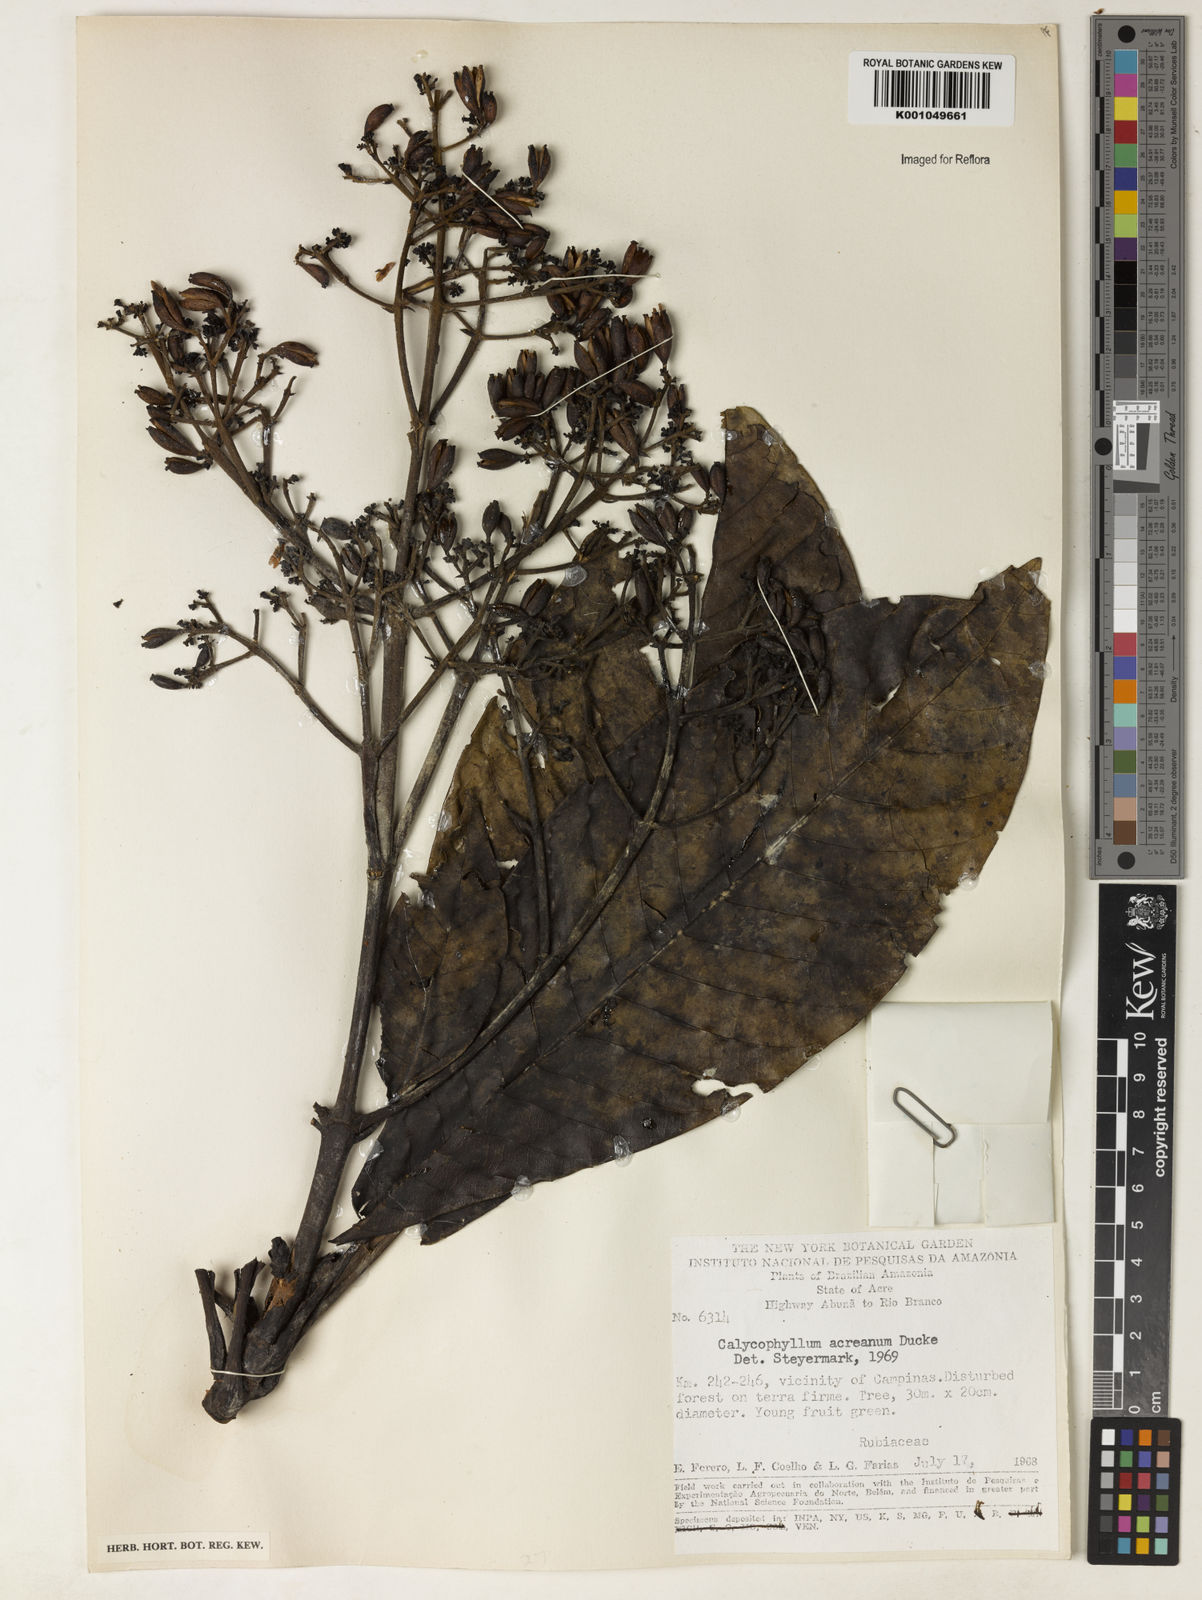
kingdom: Plantae
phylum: Tracheophyta
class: Magnoliopsida
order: Gentianales
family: Rubiaceae
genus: Calycophyllum
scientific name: Calycophyllum megistocaulum
